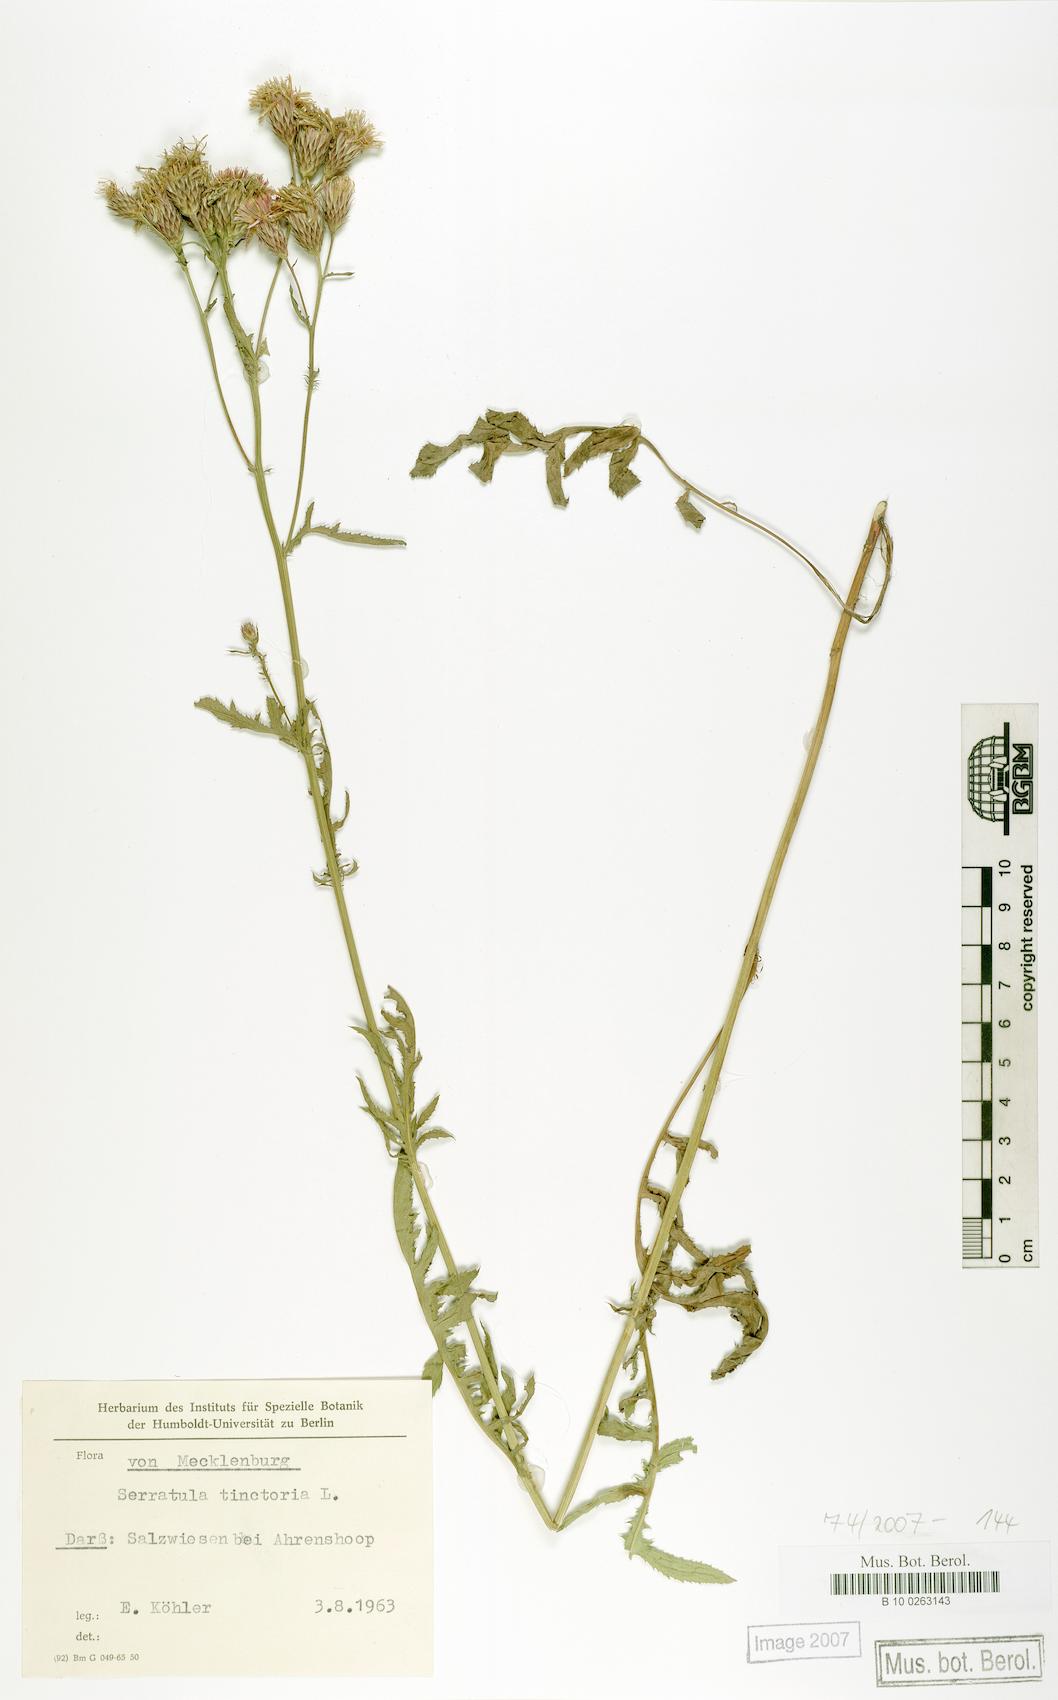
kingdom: Plantae
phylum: Tracheophyta
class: Magnoliopsida
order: Asterales
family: Asteraceae
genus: Serratula
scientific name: Serratula tinctoria
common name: Saw-wort
